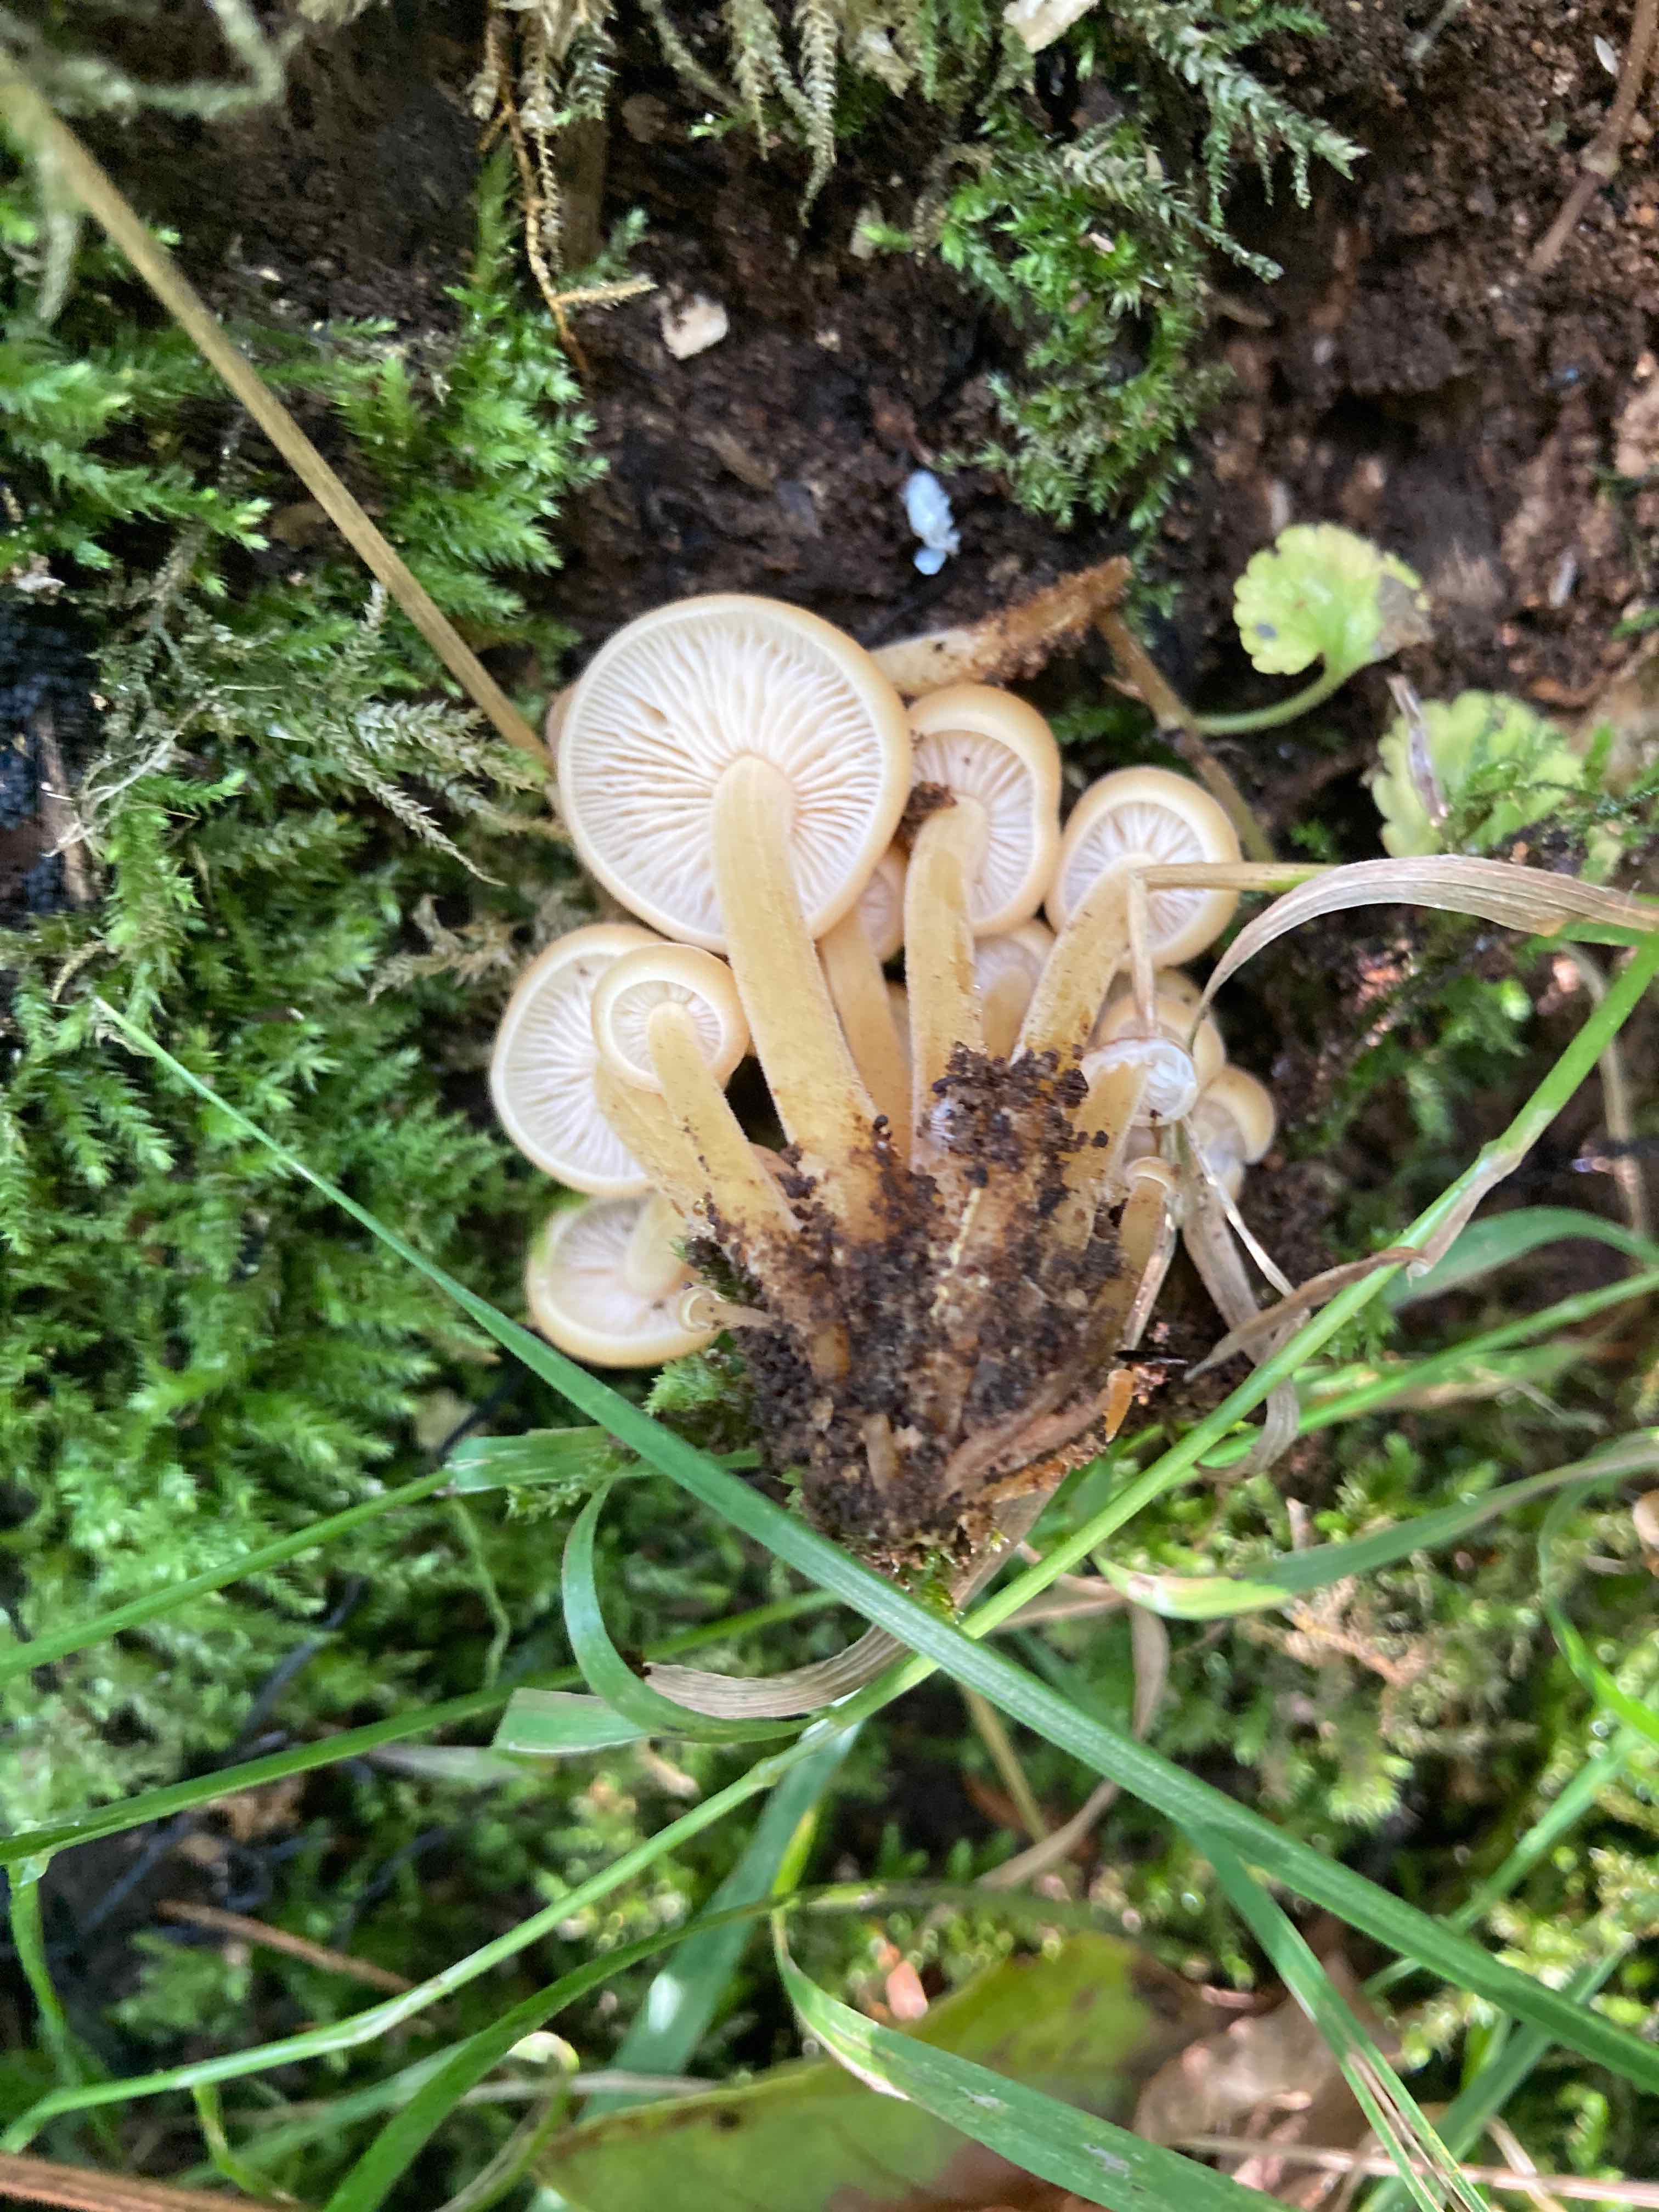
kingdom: Fungi
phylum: Basidiomycota
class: Agaricomycetes
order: Agaricales
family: Physalacriaceae
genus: Flammulina
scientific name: Flammulina velutipes
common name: gul fløjlsfod
